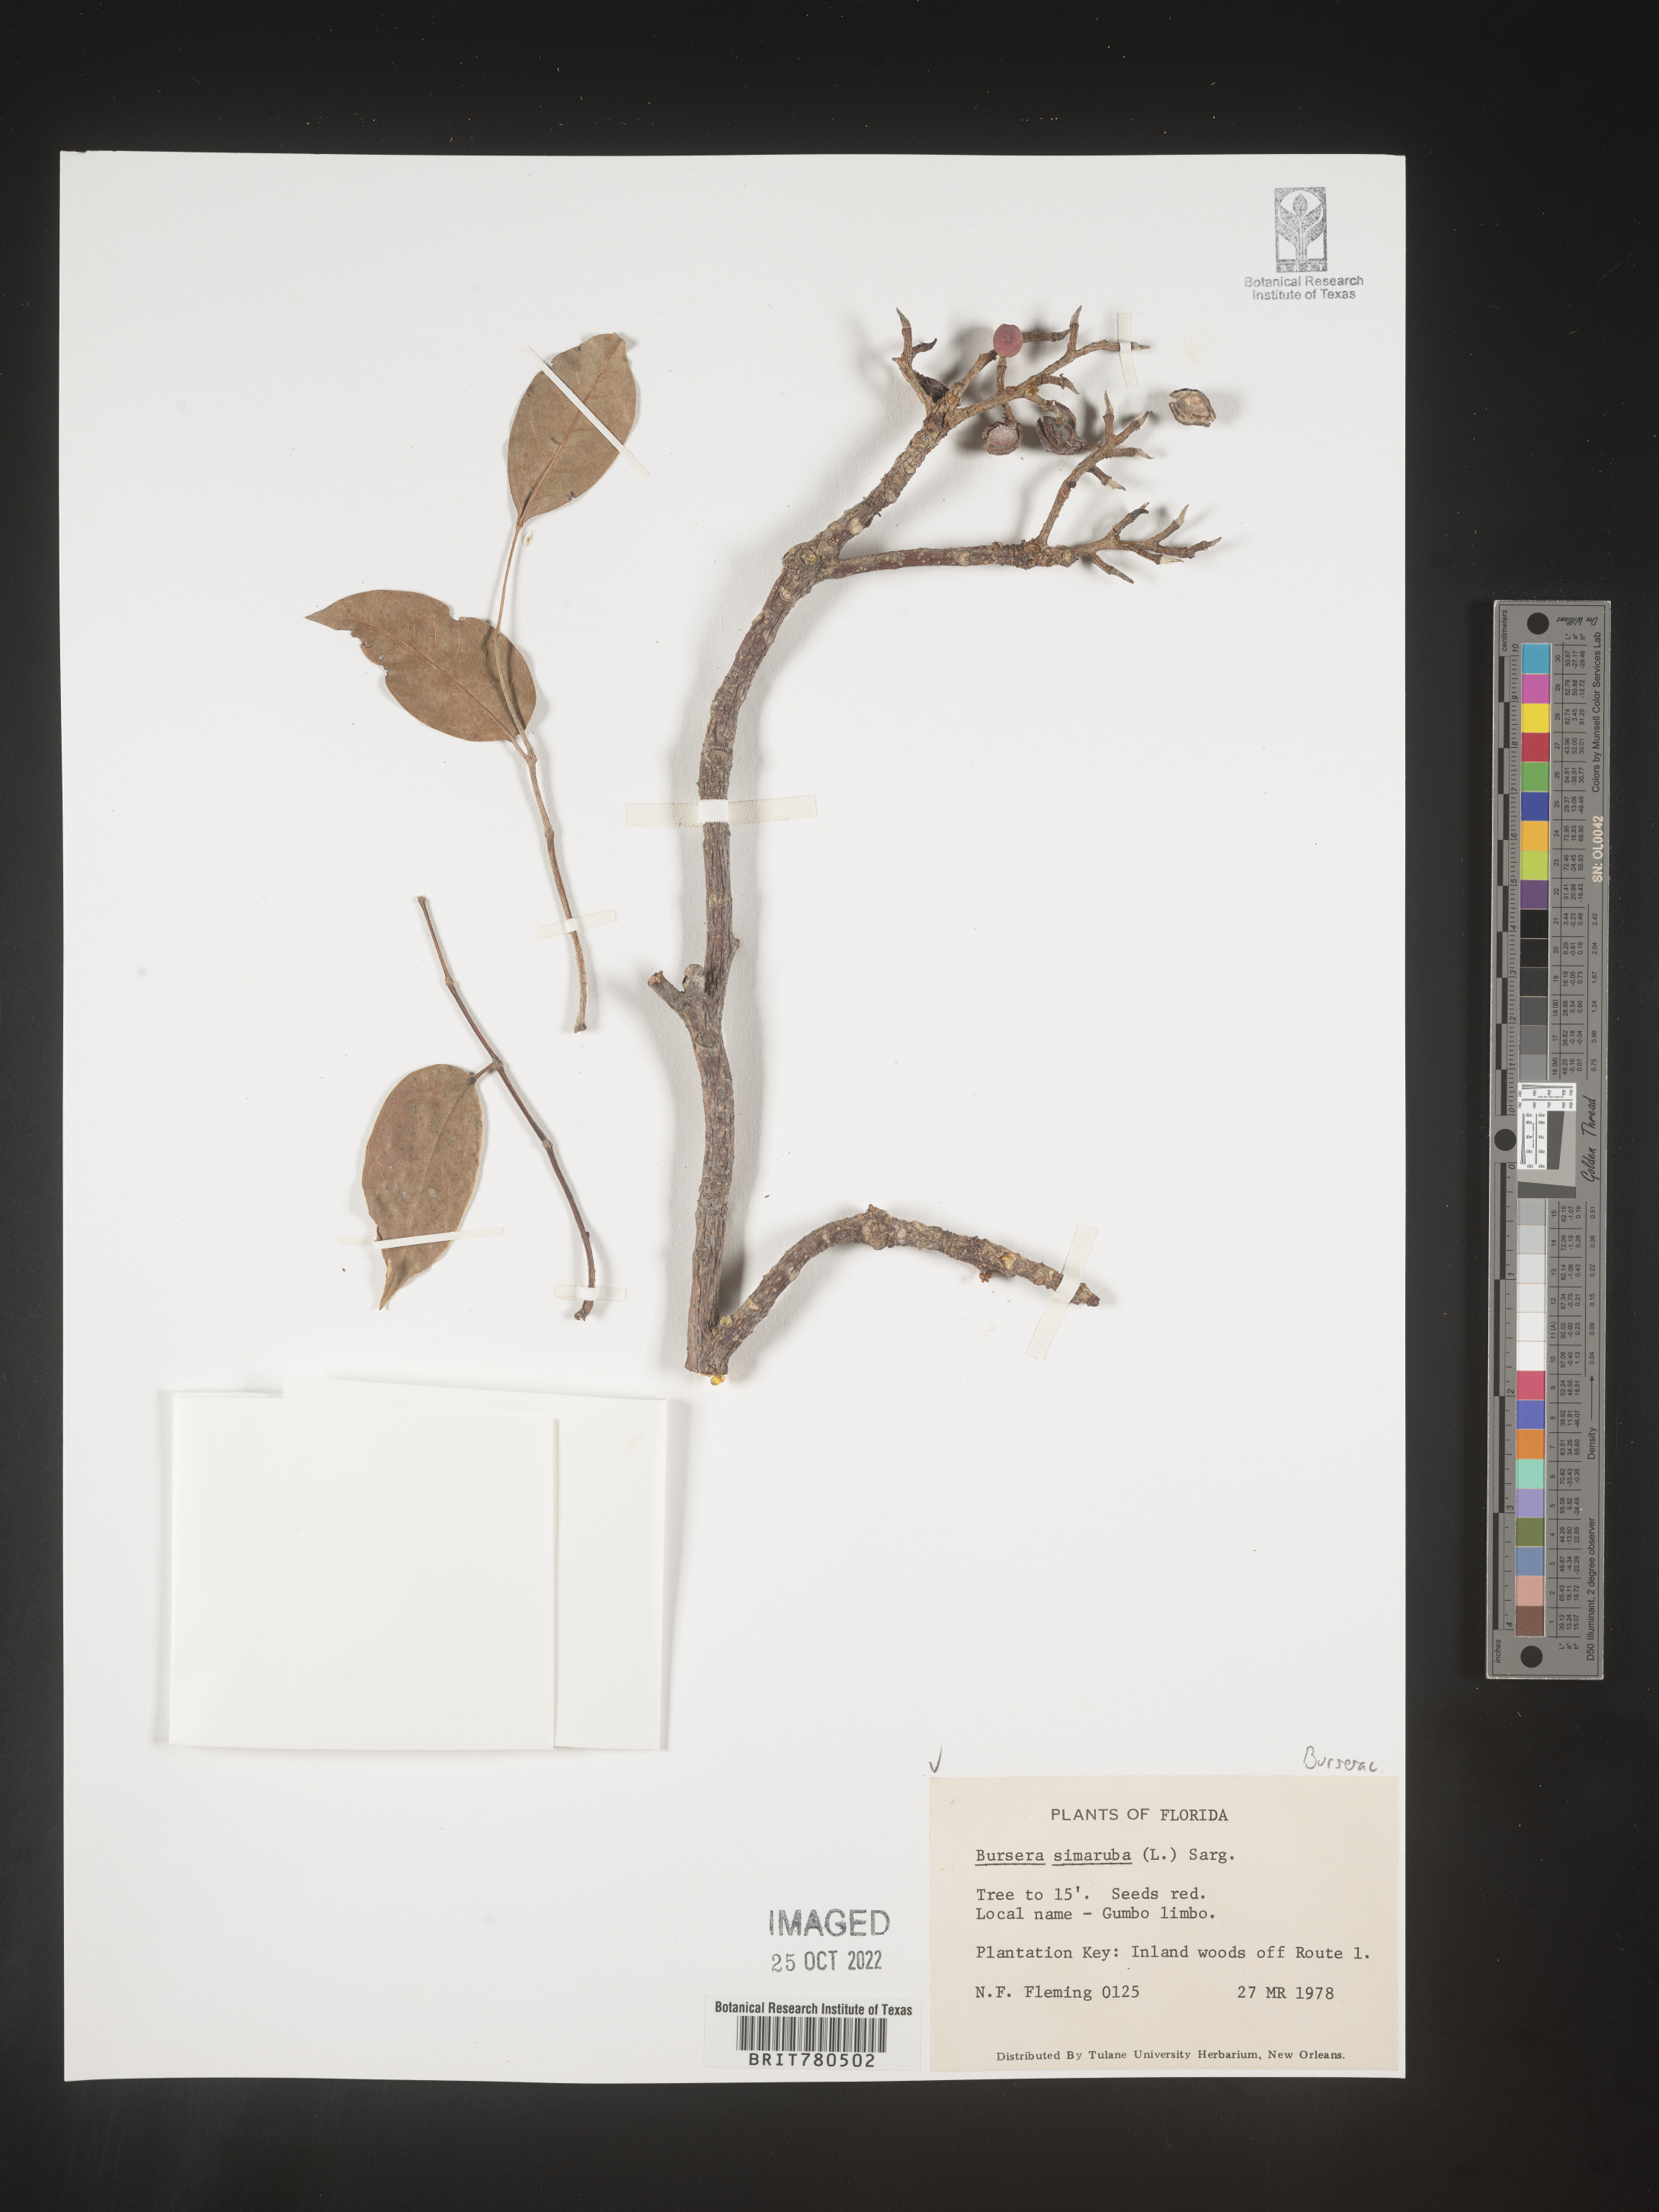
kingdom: Plantae
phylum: Tracheophyta
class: Magnoliopsida
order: Sapindales
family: Burseraceae
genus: Bursera
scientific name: Bursera
